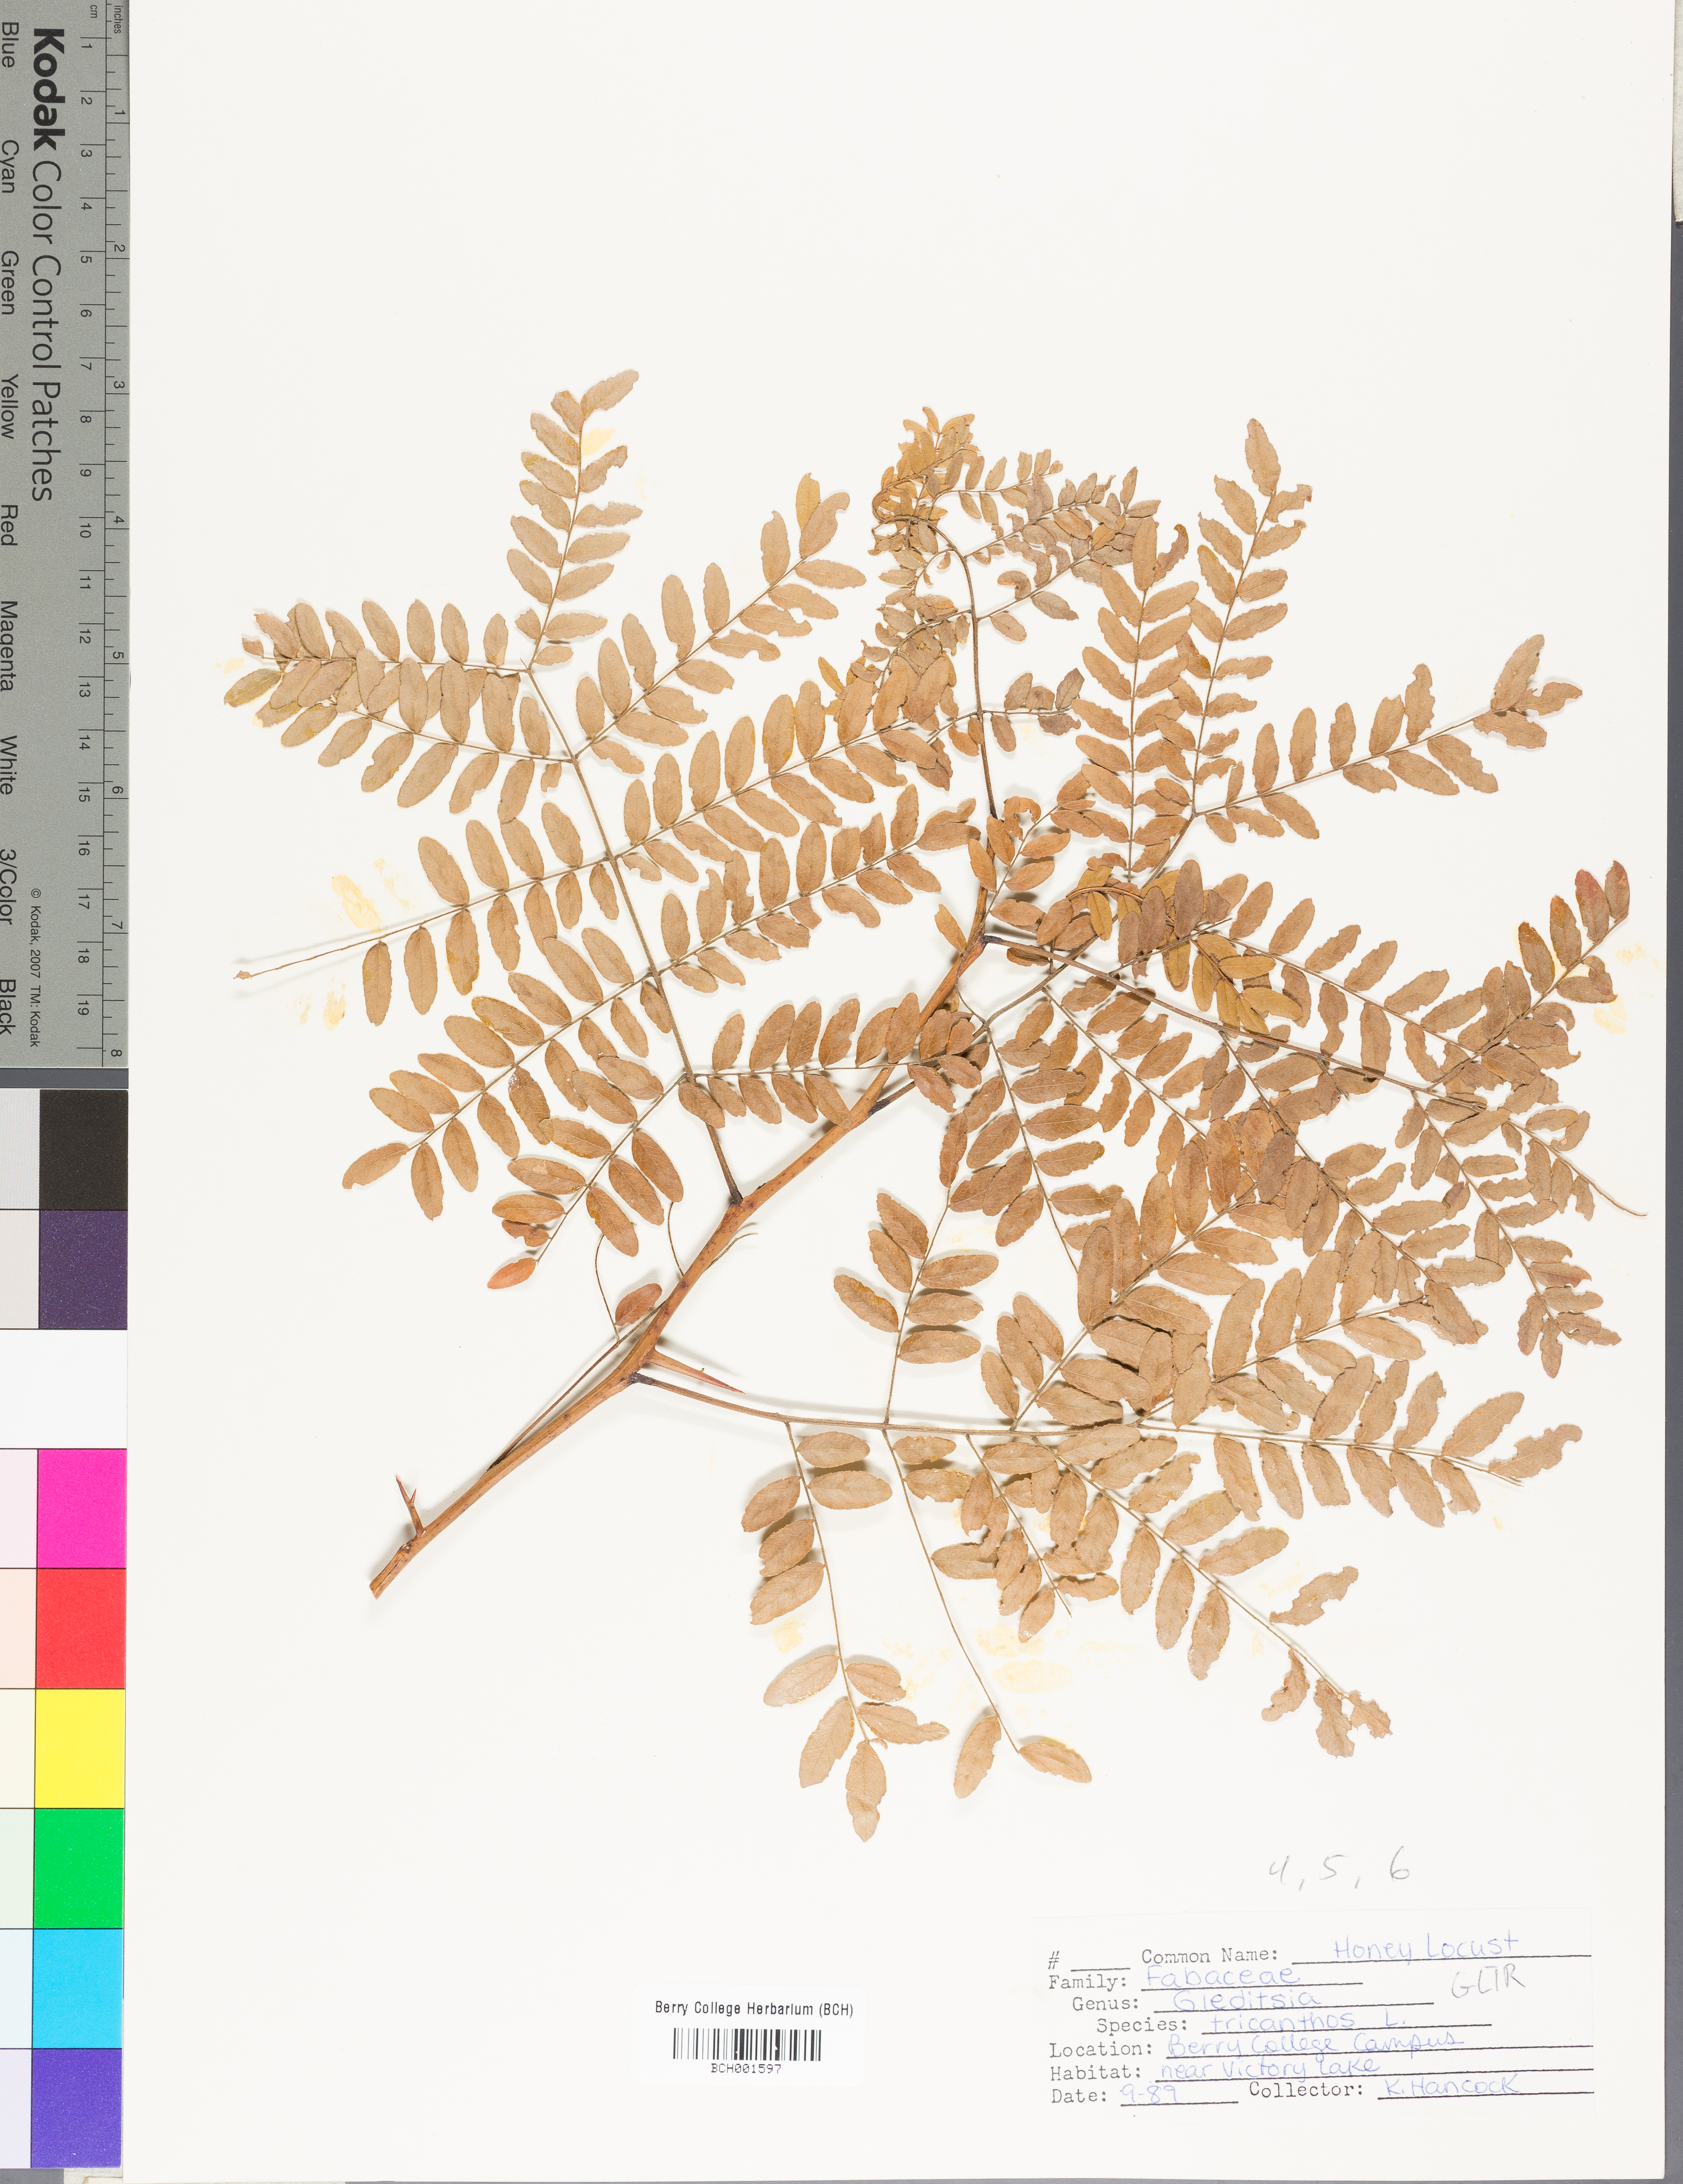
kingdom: Plantae
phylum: Tracheophyta
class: Magnoliopsida
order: Fabales
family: Fabaceae
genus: Gleditsia
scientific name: Gleditsia triacanthos
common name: Common honeylocust
